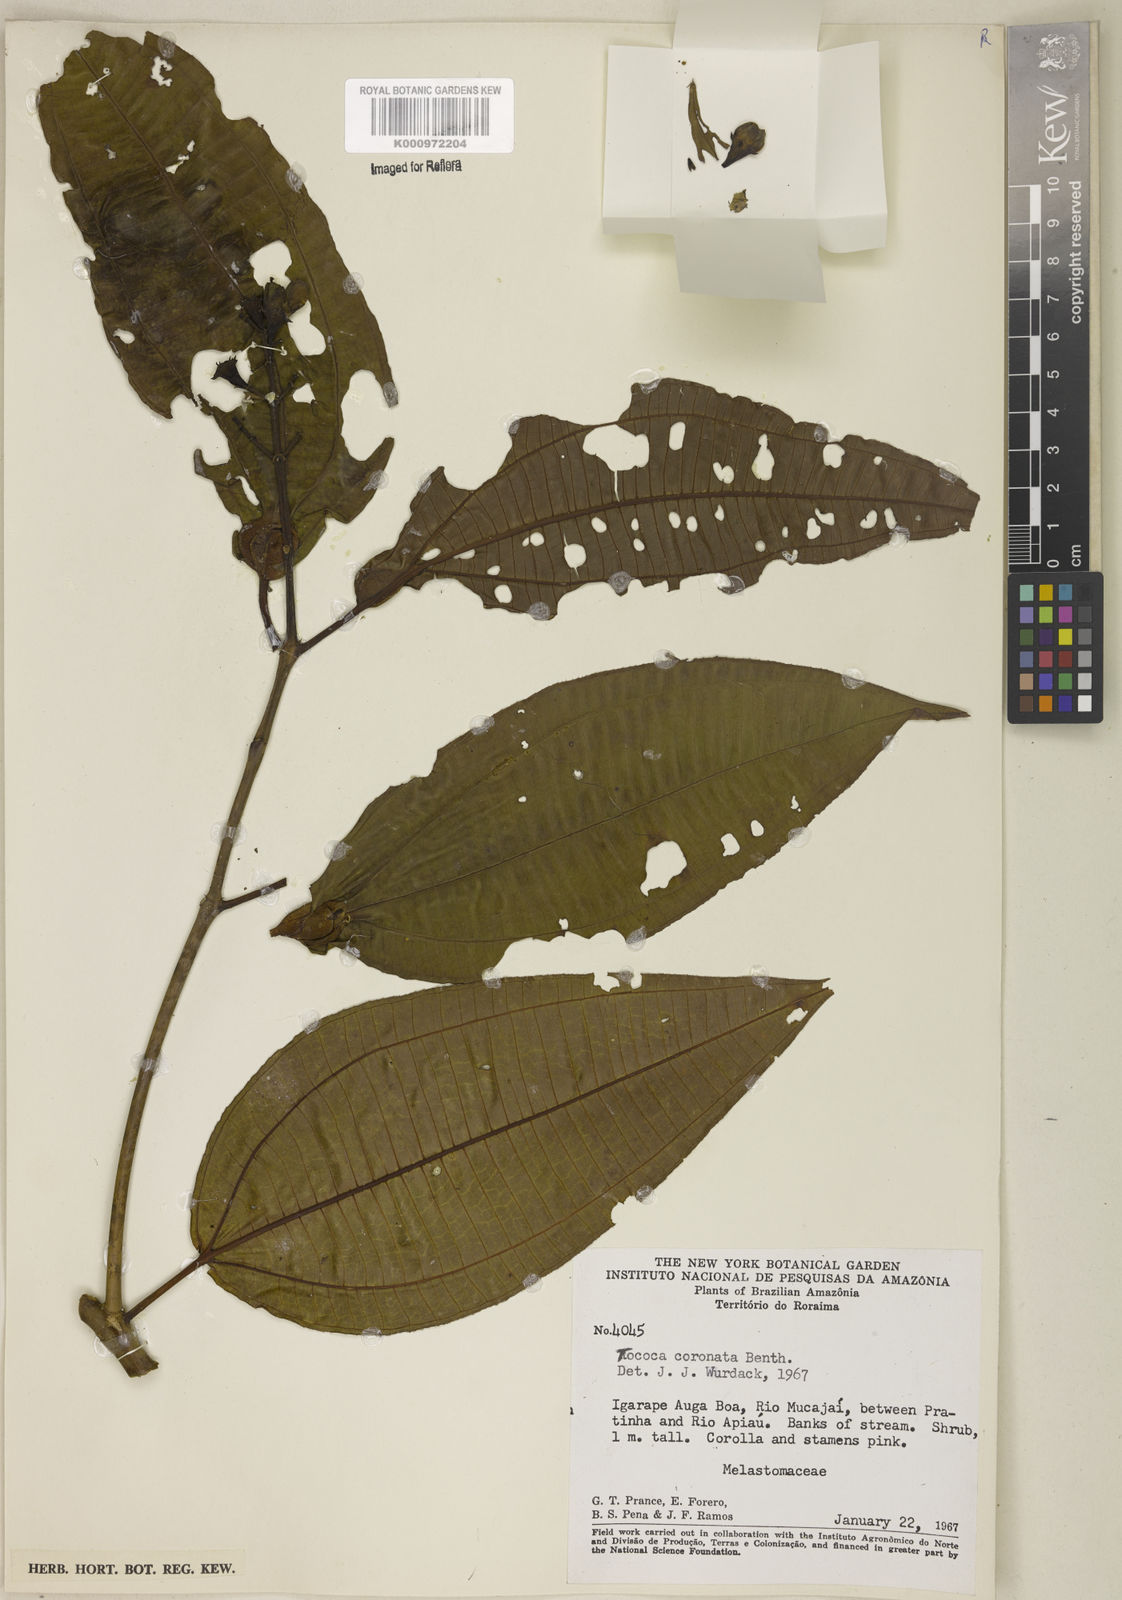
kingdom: Plantae
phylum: Tracheophyta
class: Magnoliopsida
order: Myrtales
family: Melastomataceae
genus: Miconia
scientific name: Miconia tococoronata
